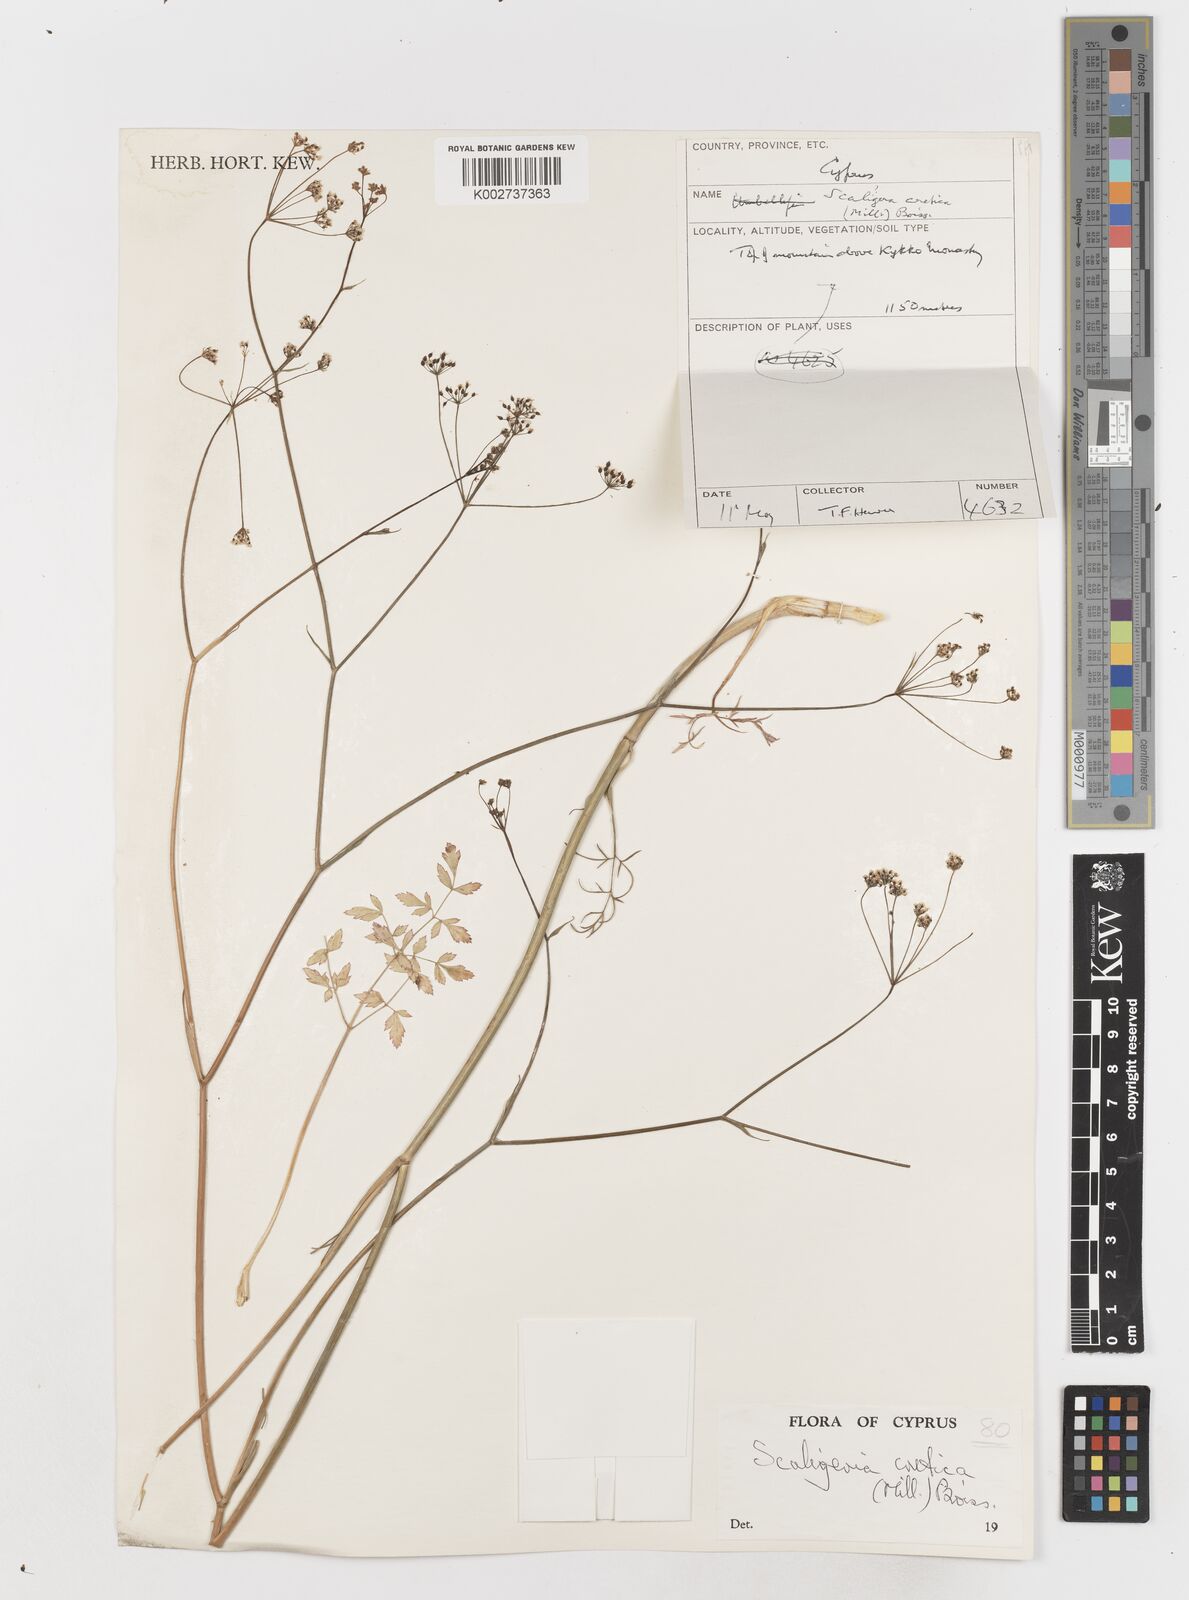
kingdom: Plantae
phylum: Tracheophyta
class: Magnoliopsida
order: Apiales
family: Apiaceae
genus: Scaligeria
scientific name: Scaligeria
